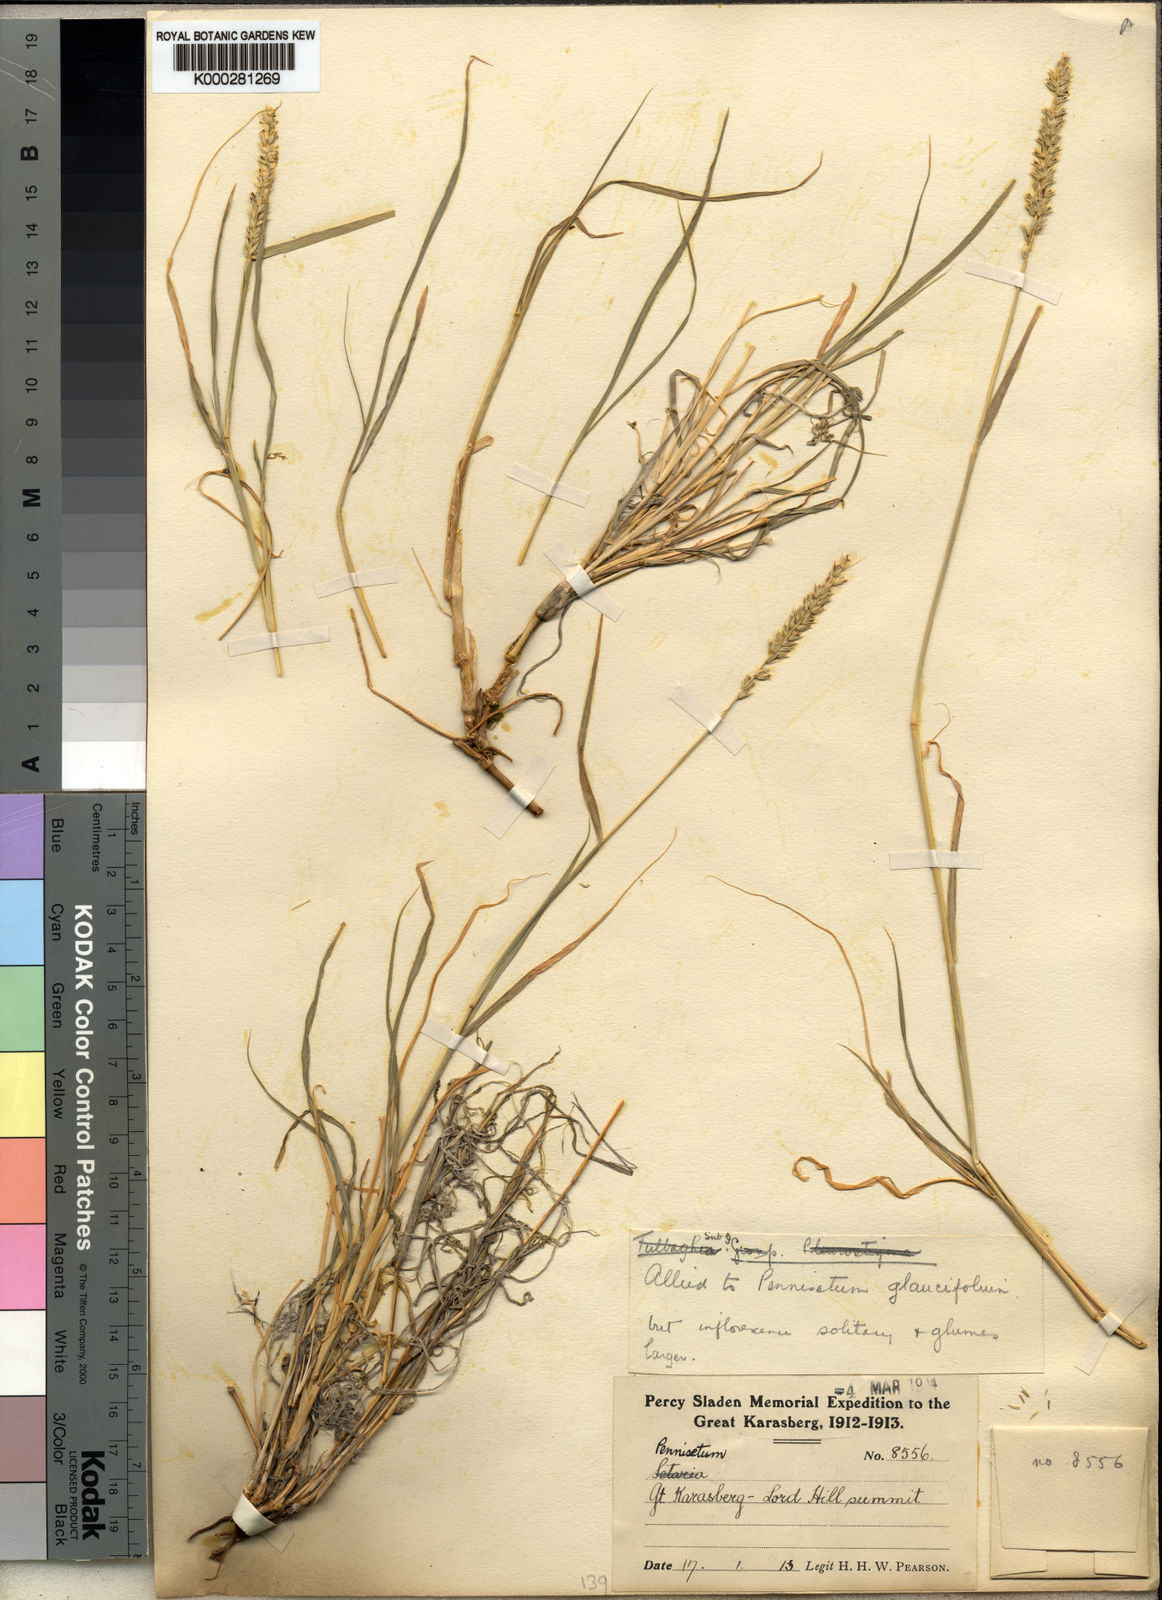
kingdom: Plantae
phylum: Tracheophyta
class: Liliopsida
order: Poales
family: Poaceae
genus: Cenchrus
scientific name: Cenchrus mezianus
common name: Bamboo grass
